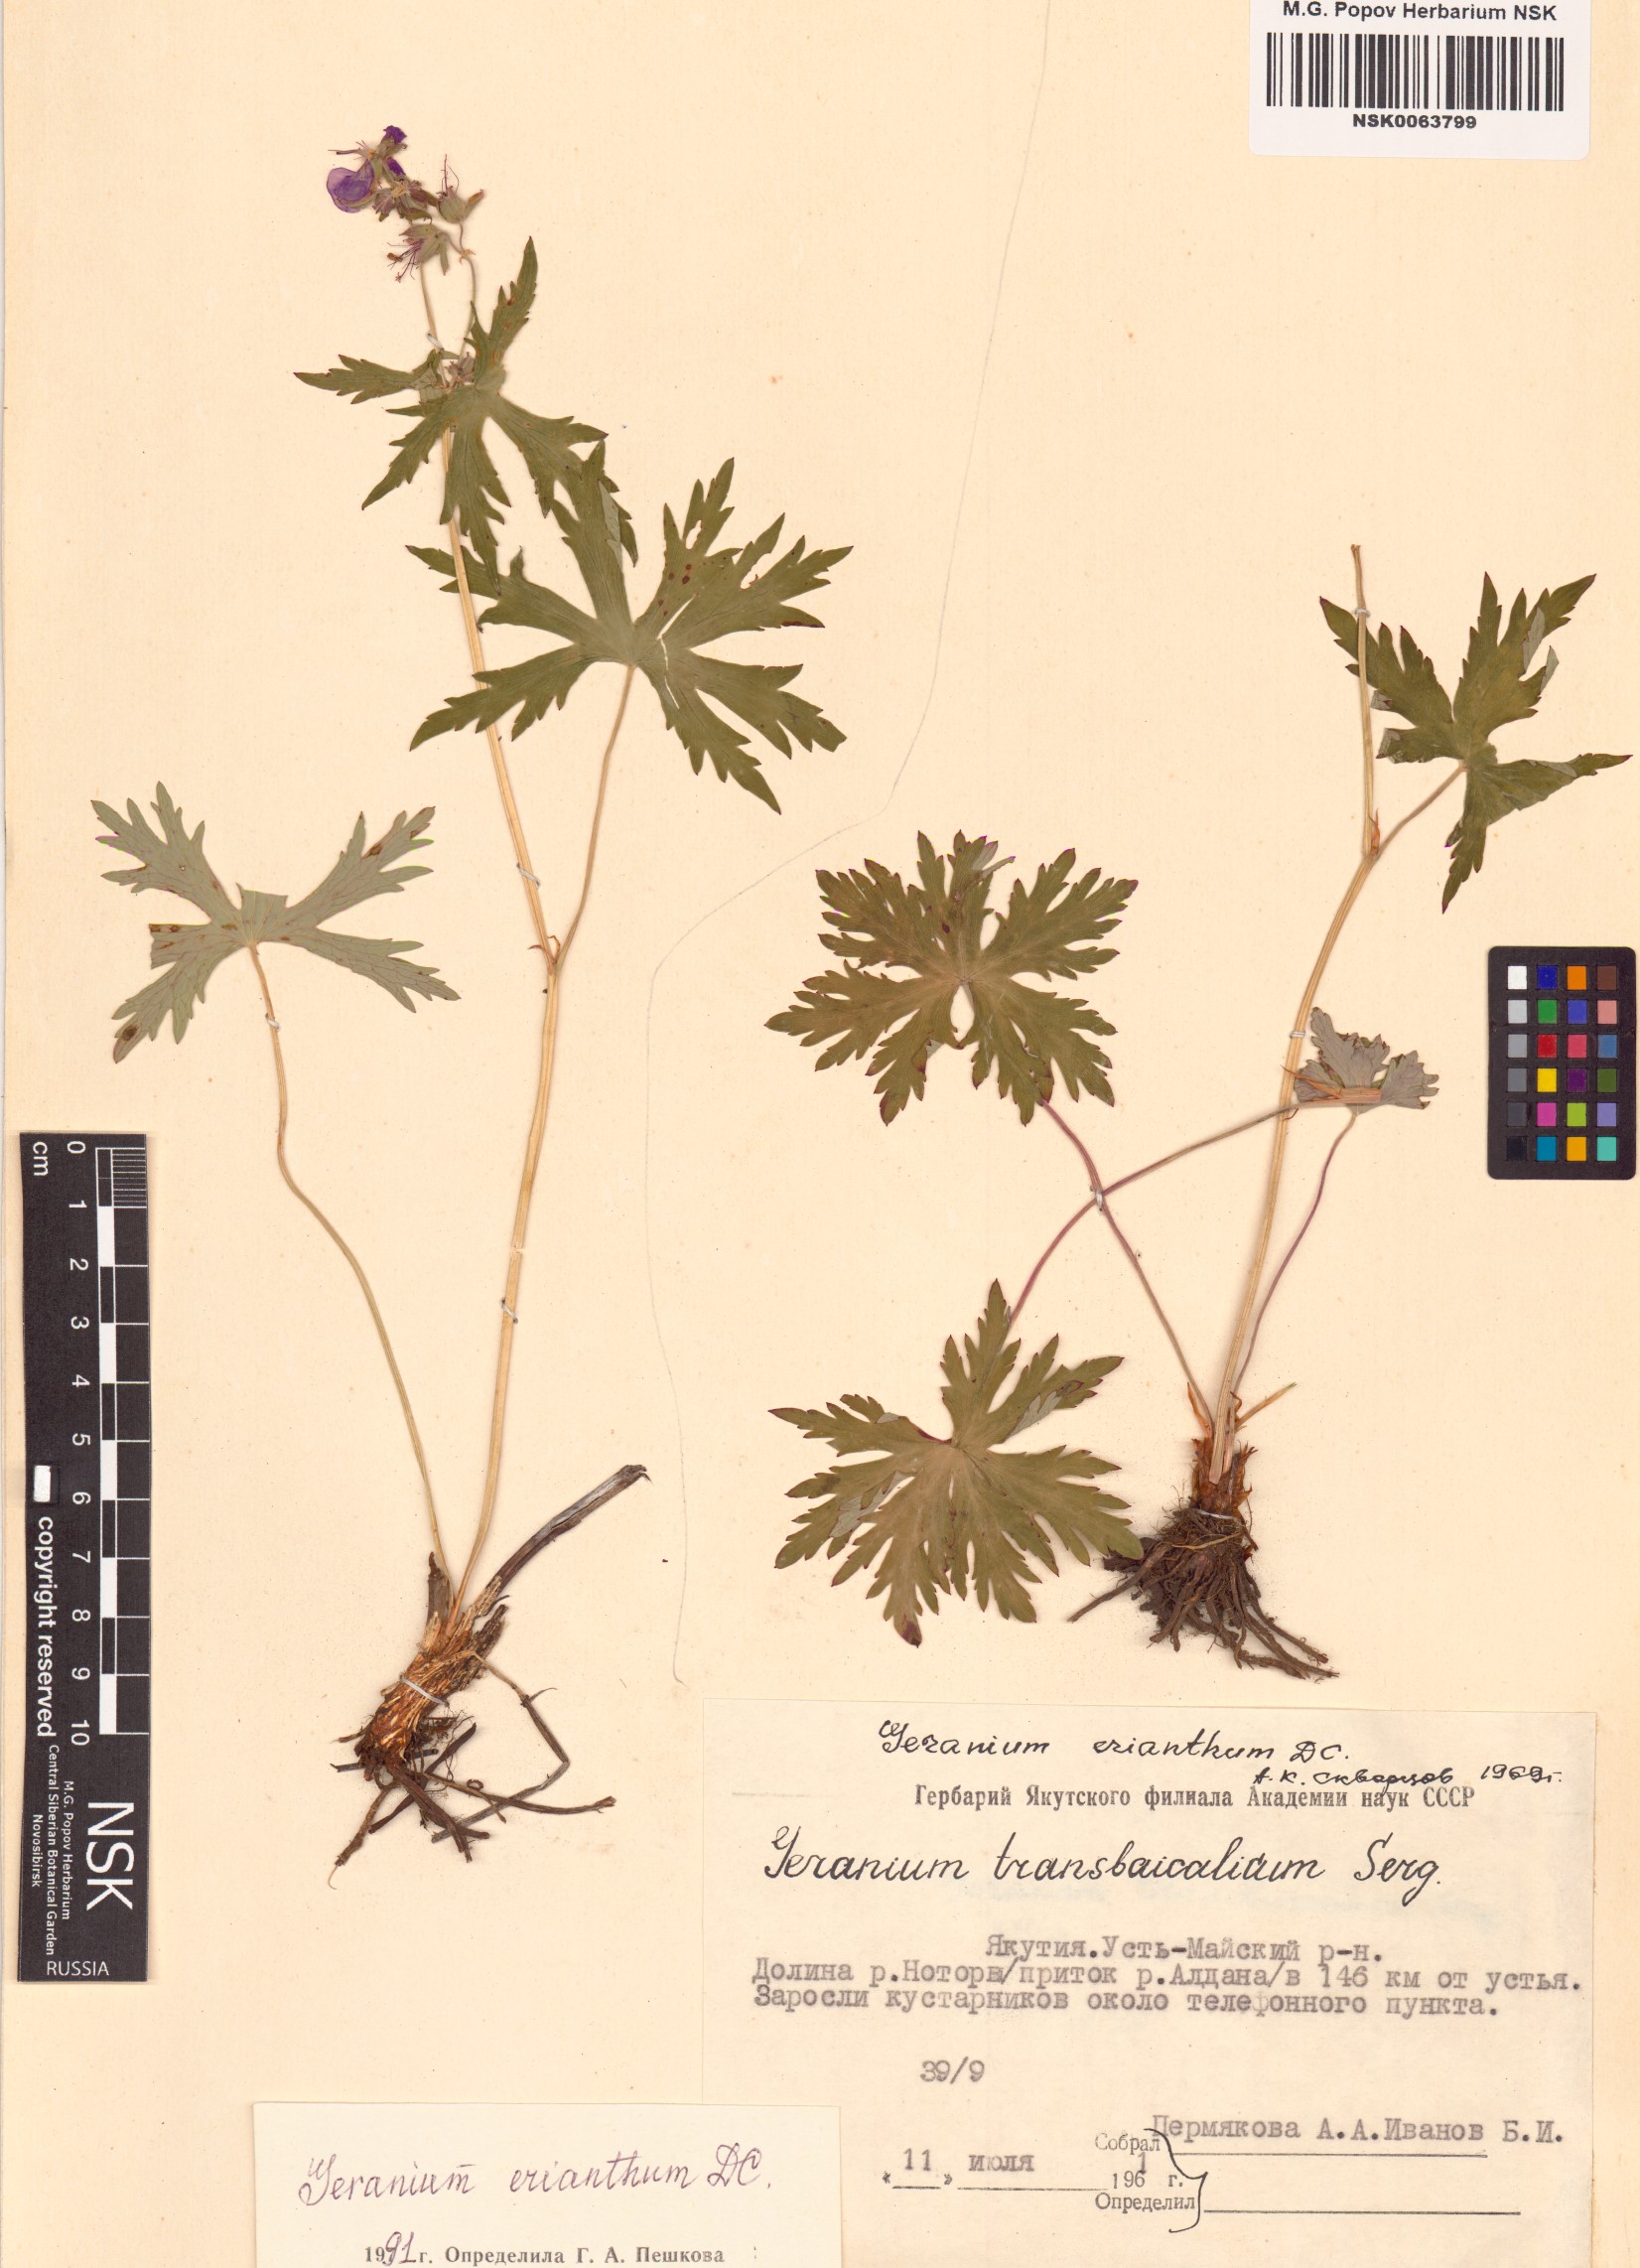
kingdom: Plantae
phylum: Tracheophyta
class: Magnoliopsida
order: Geraniales
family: Geraniaceae
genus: Geranium
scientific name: Geranium erianthum
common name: Northern crane's-bill
